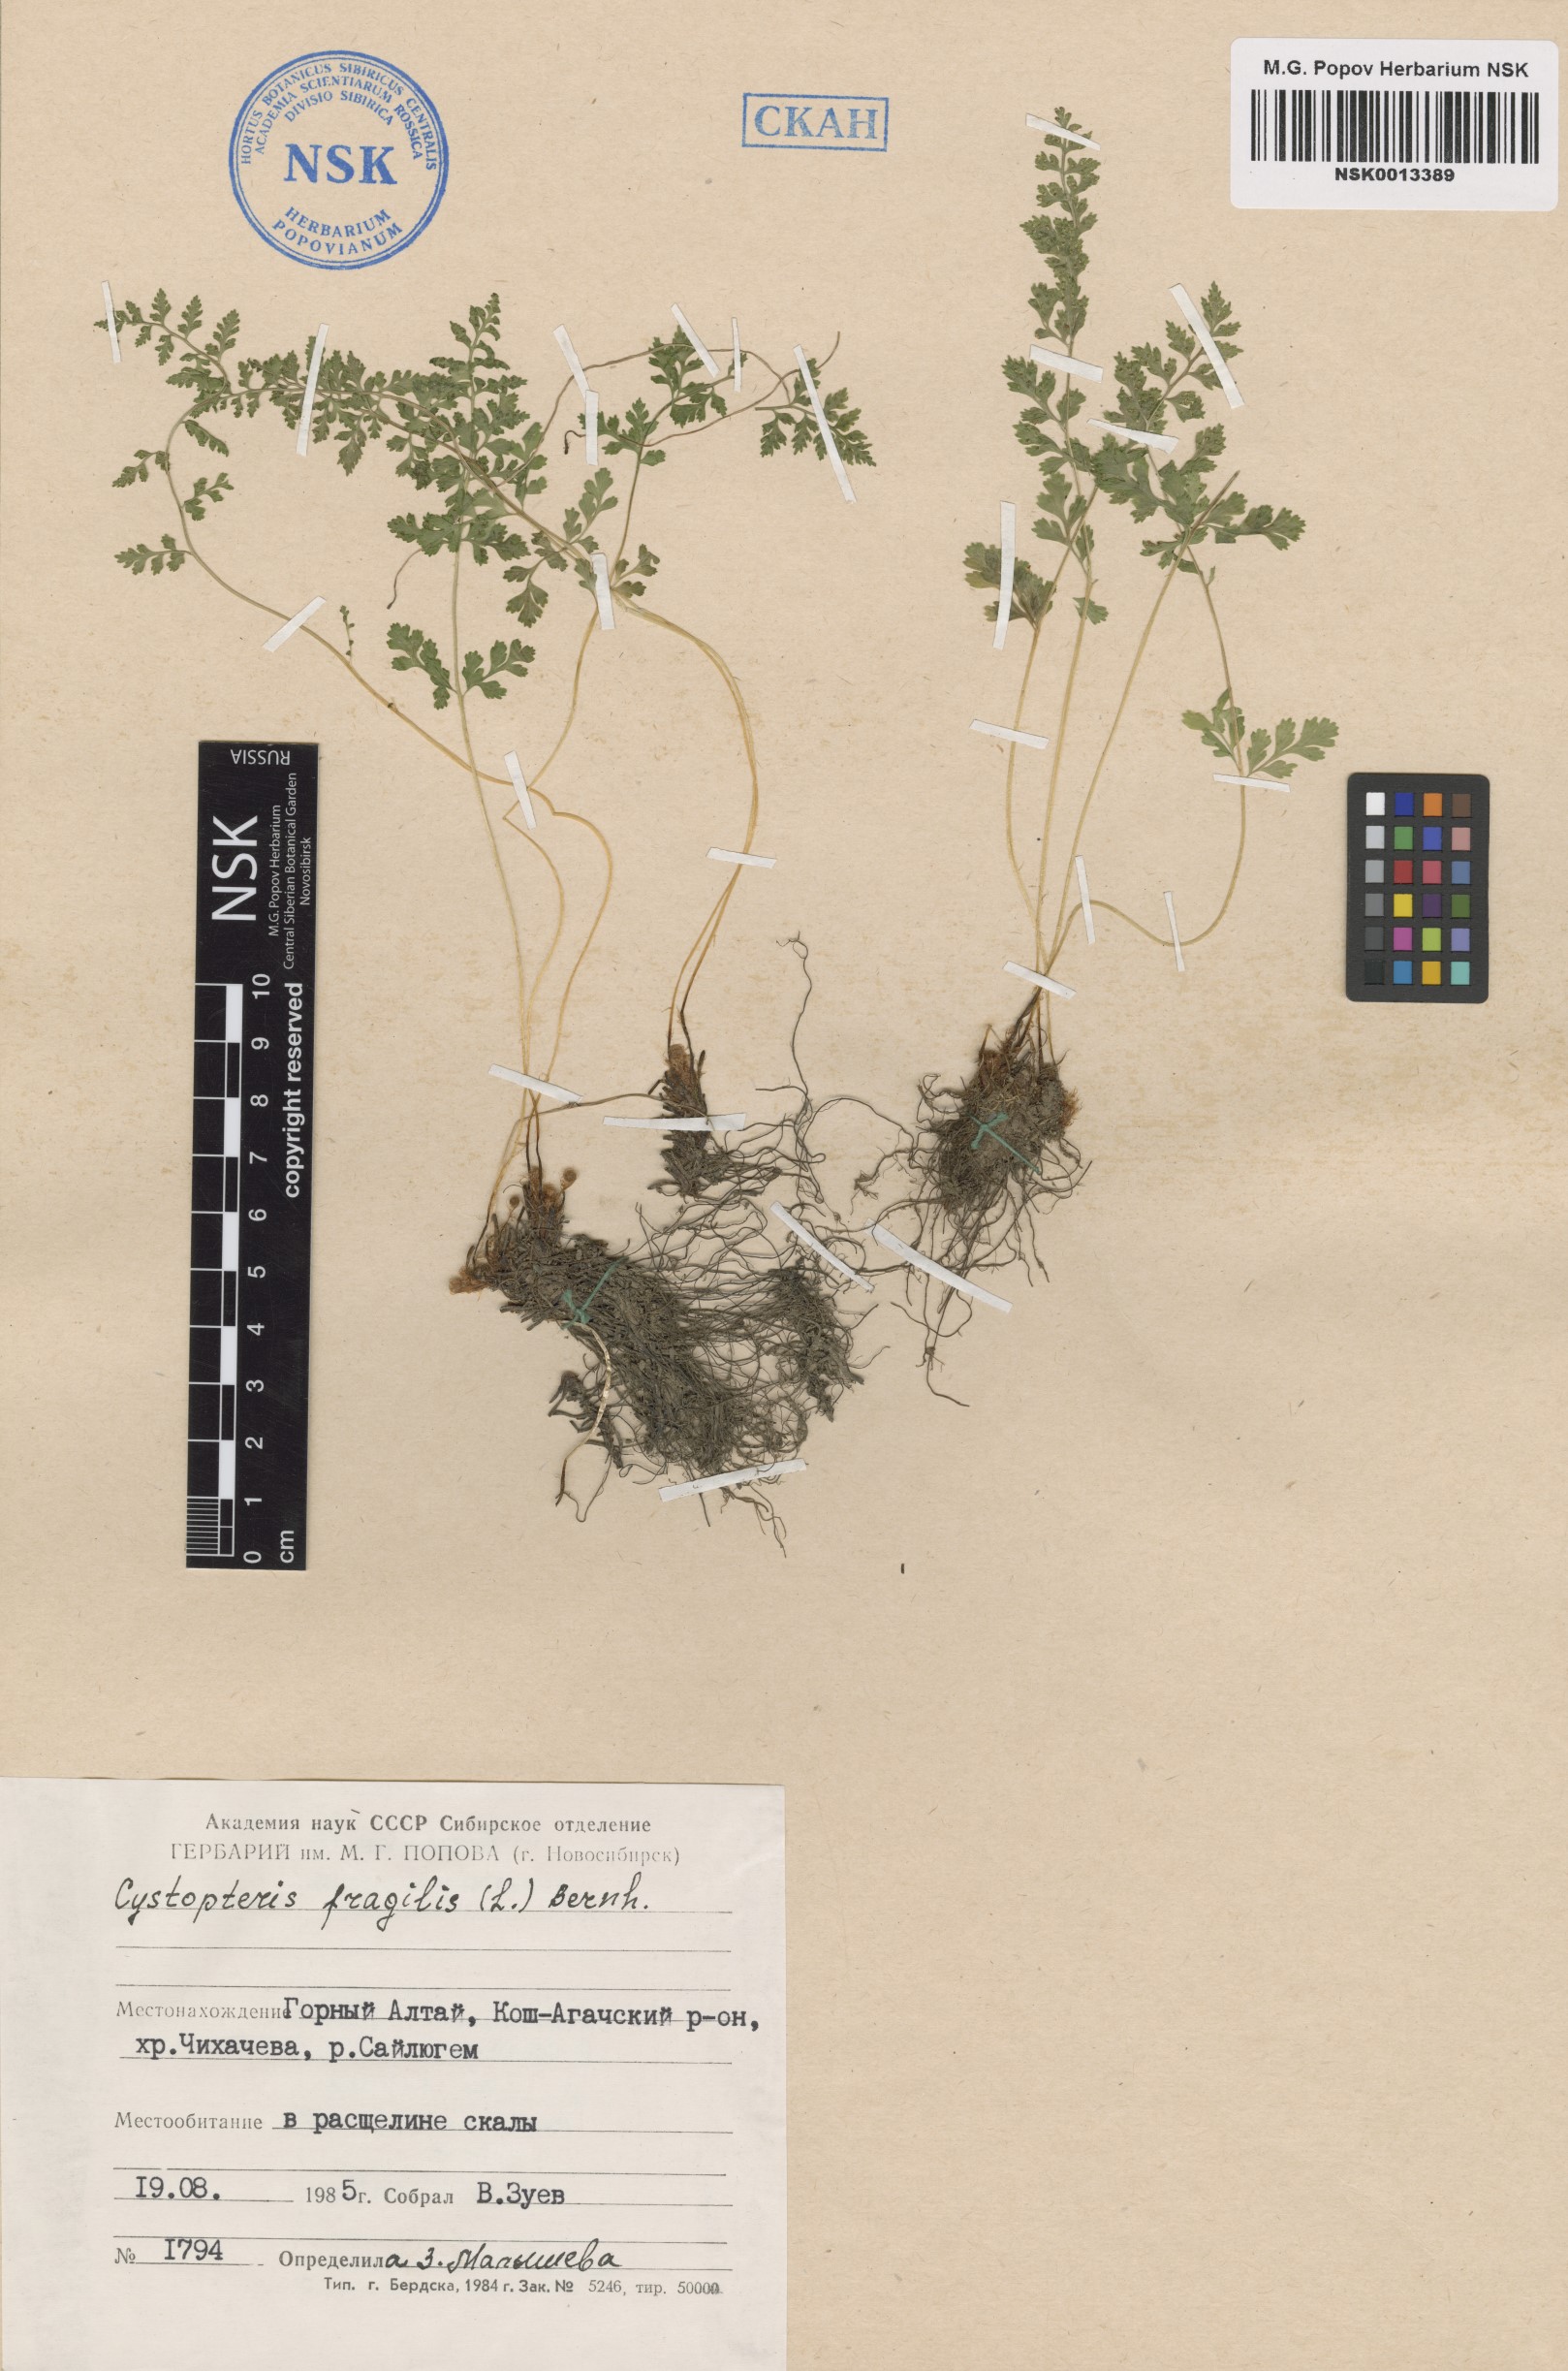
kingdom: Plantae
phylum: Tracheophyta
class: Polypodiopsida
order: Polypodiales
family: Cystopteridaceae
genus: Cystopteris
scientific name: Cystopteris fragilis
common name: Brittle bladder fern
